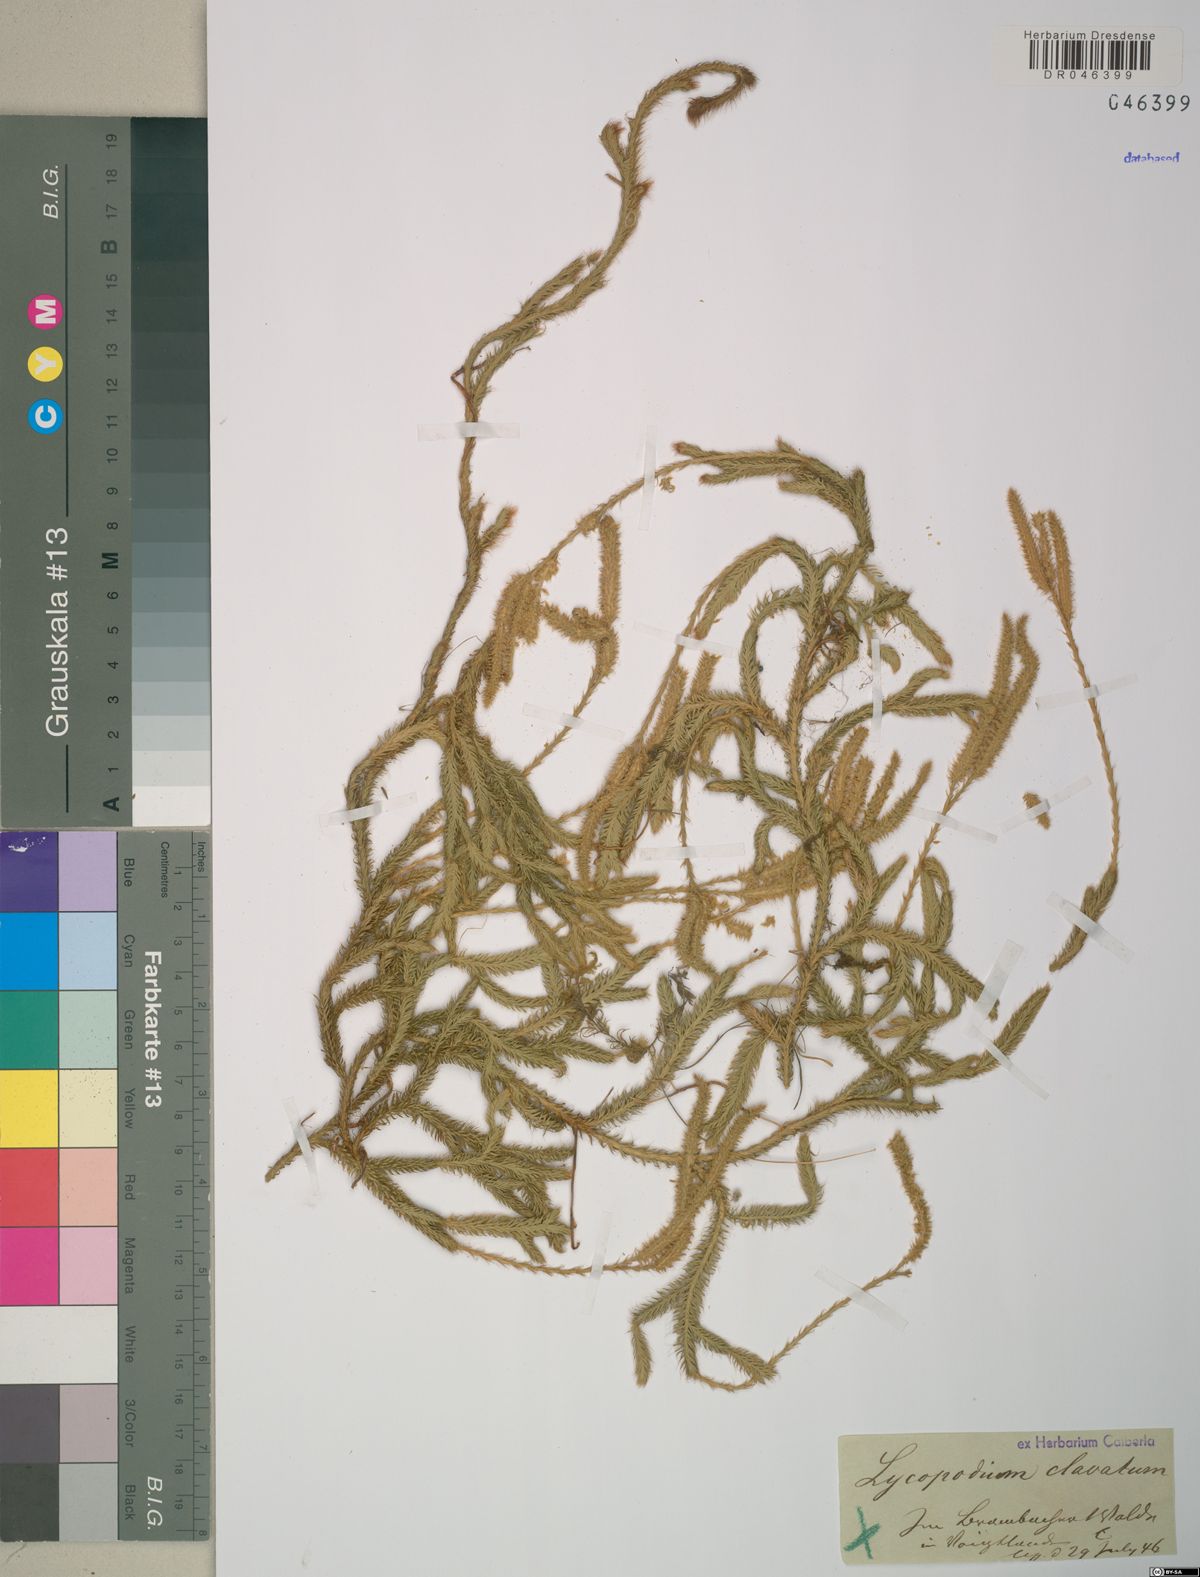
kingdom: Plantae
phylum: Tracheophyta
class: Lycopodiopsida
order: Lycopodiales
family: Lycopodiaceae
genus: Lycopodium
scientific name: Lycopodium clavatum
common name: Stag's-horn clubmoss
